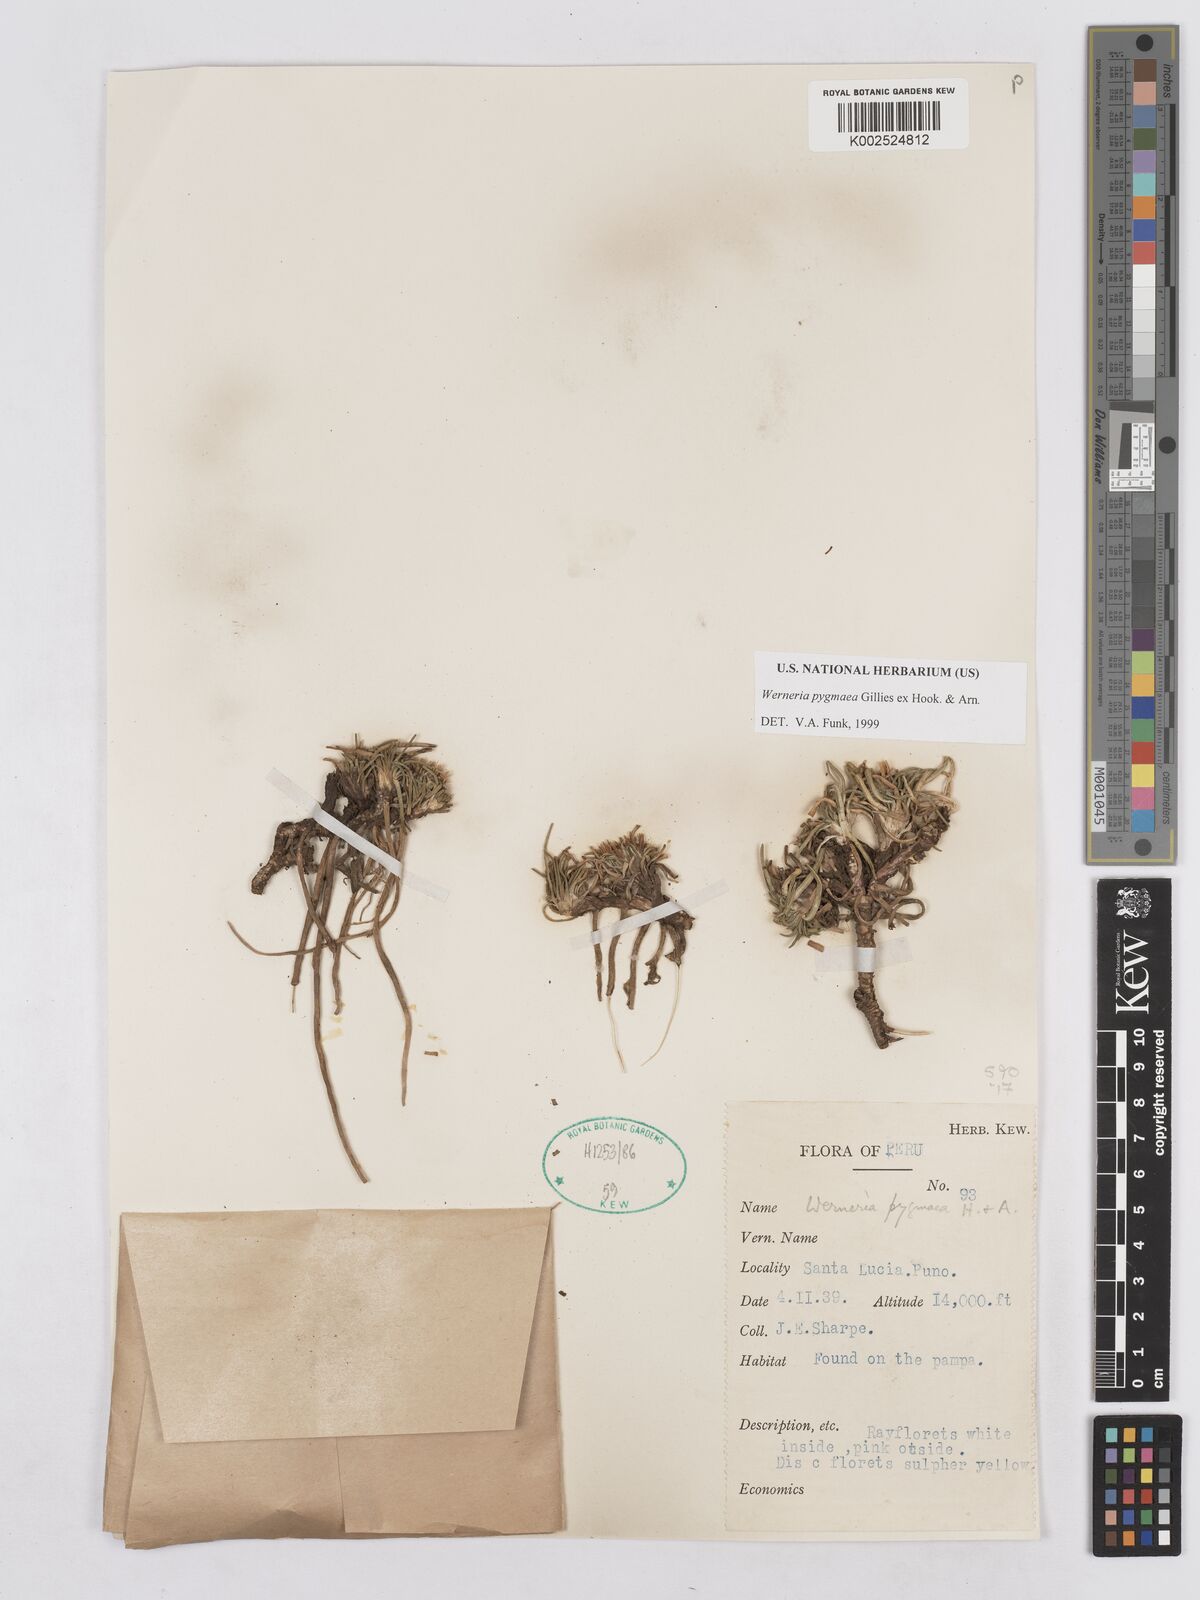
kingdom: Plantae
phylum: Tracheophyta
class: Magnoliopsida
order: Asterales
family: Asteraceae
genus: Rockhausenia
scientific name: Rockhausenia pygmaea
